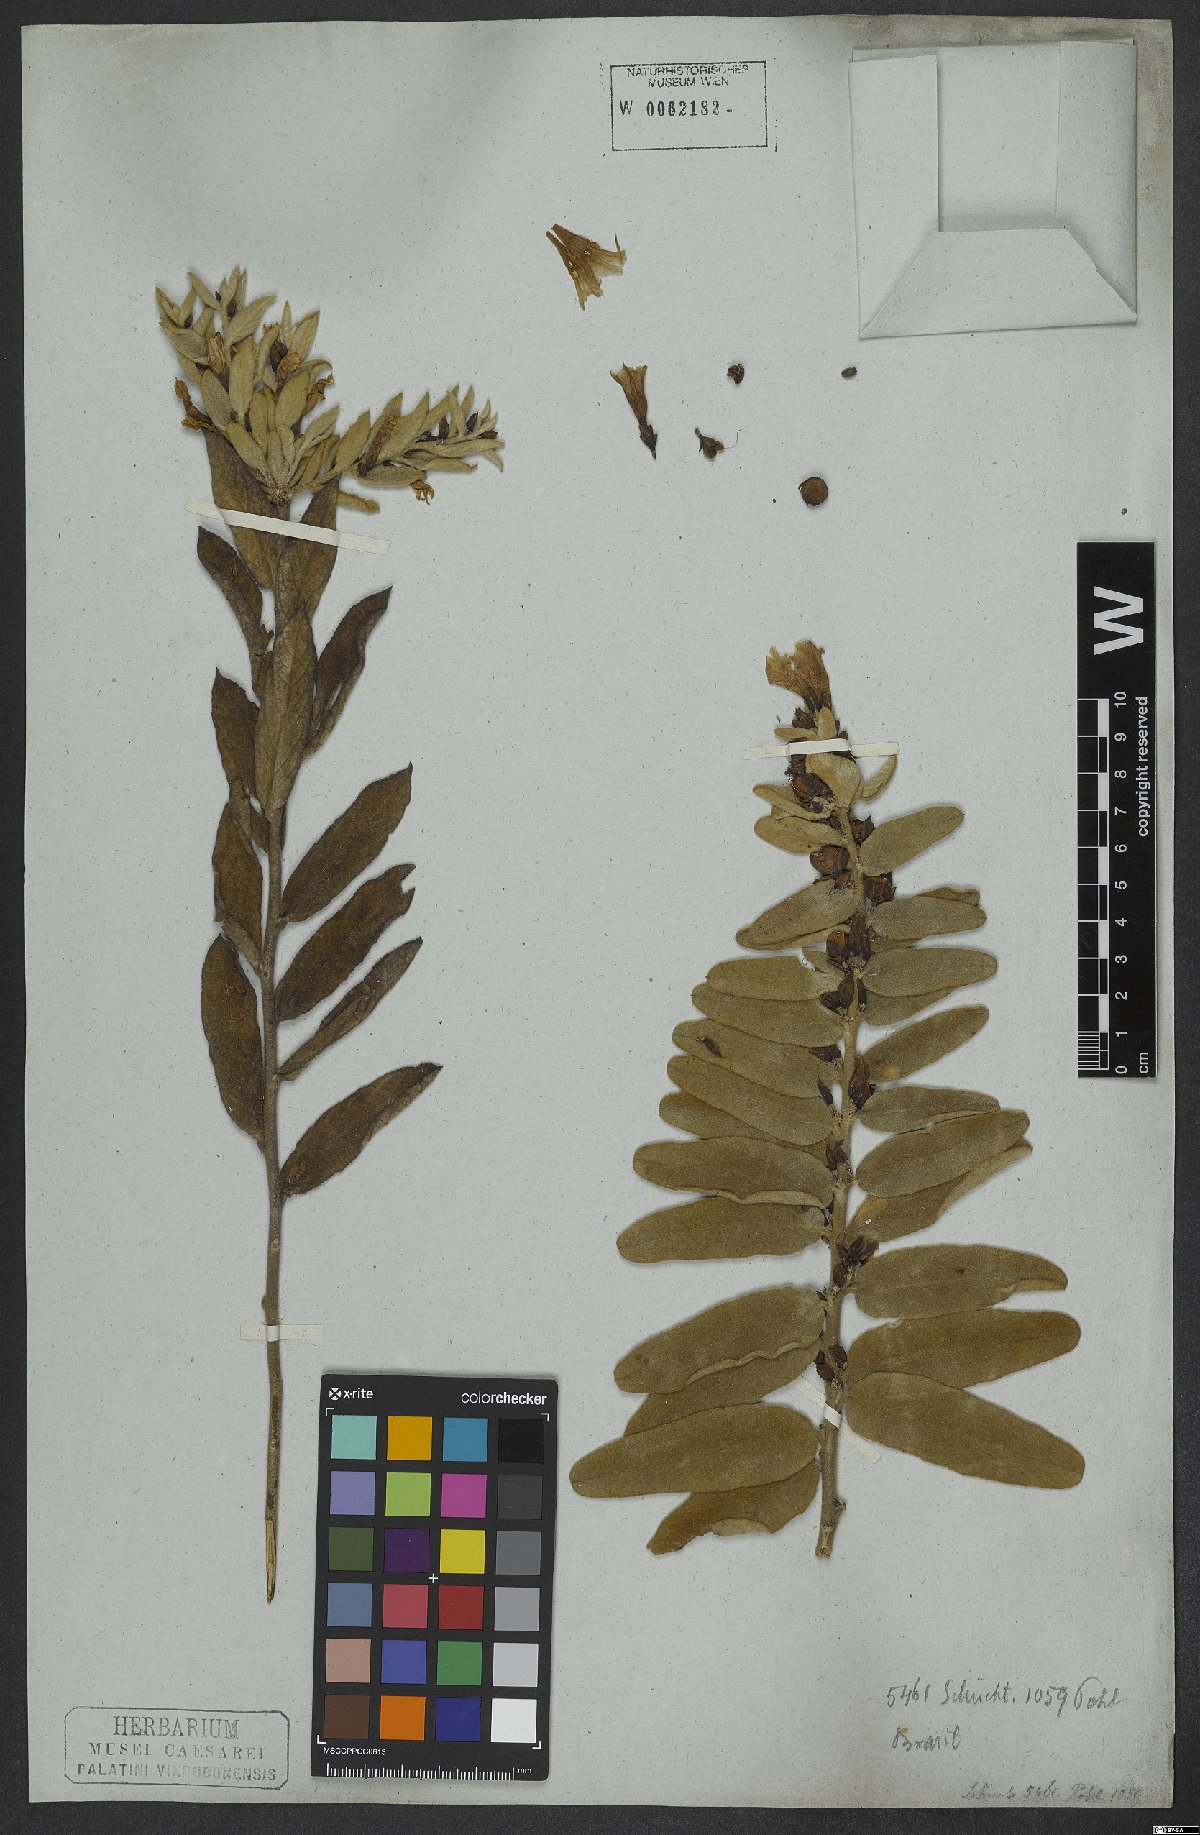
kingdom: Plantae
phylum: Tracheophyta
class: Magnoliopsida
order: Solanales
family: Convolvulaceae
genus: Distimake
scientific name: Distimake tomentosus
